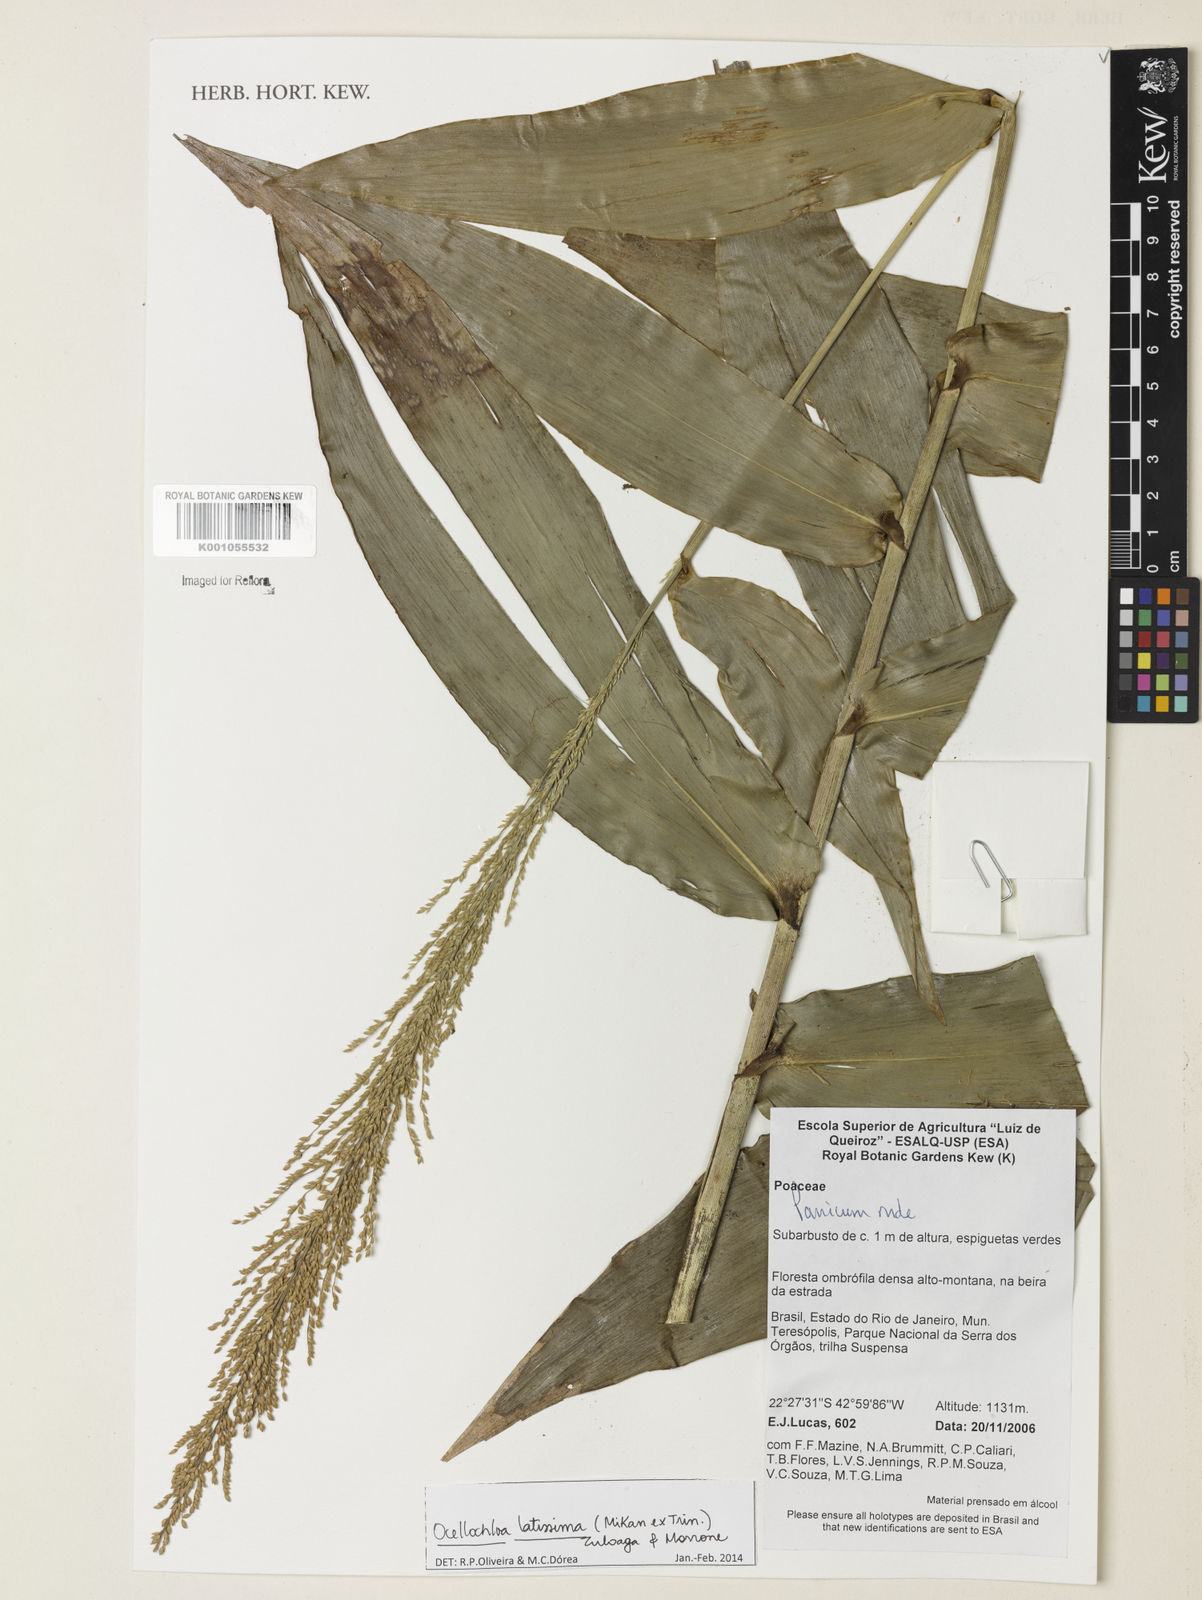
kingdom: Plantae
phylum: Tracheophyta
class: Liliopsida
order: Poales
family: Poaceae
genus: Ocellochloa
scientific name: Ocellochloa latissima
